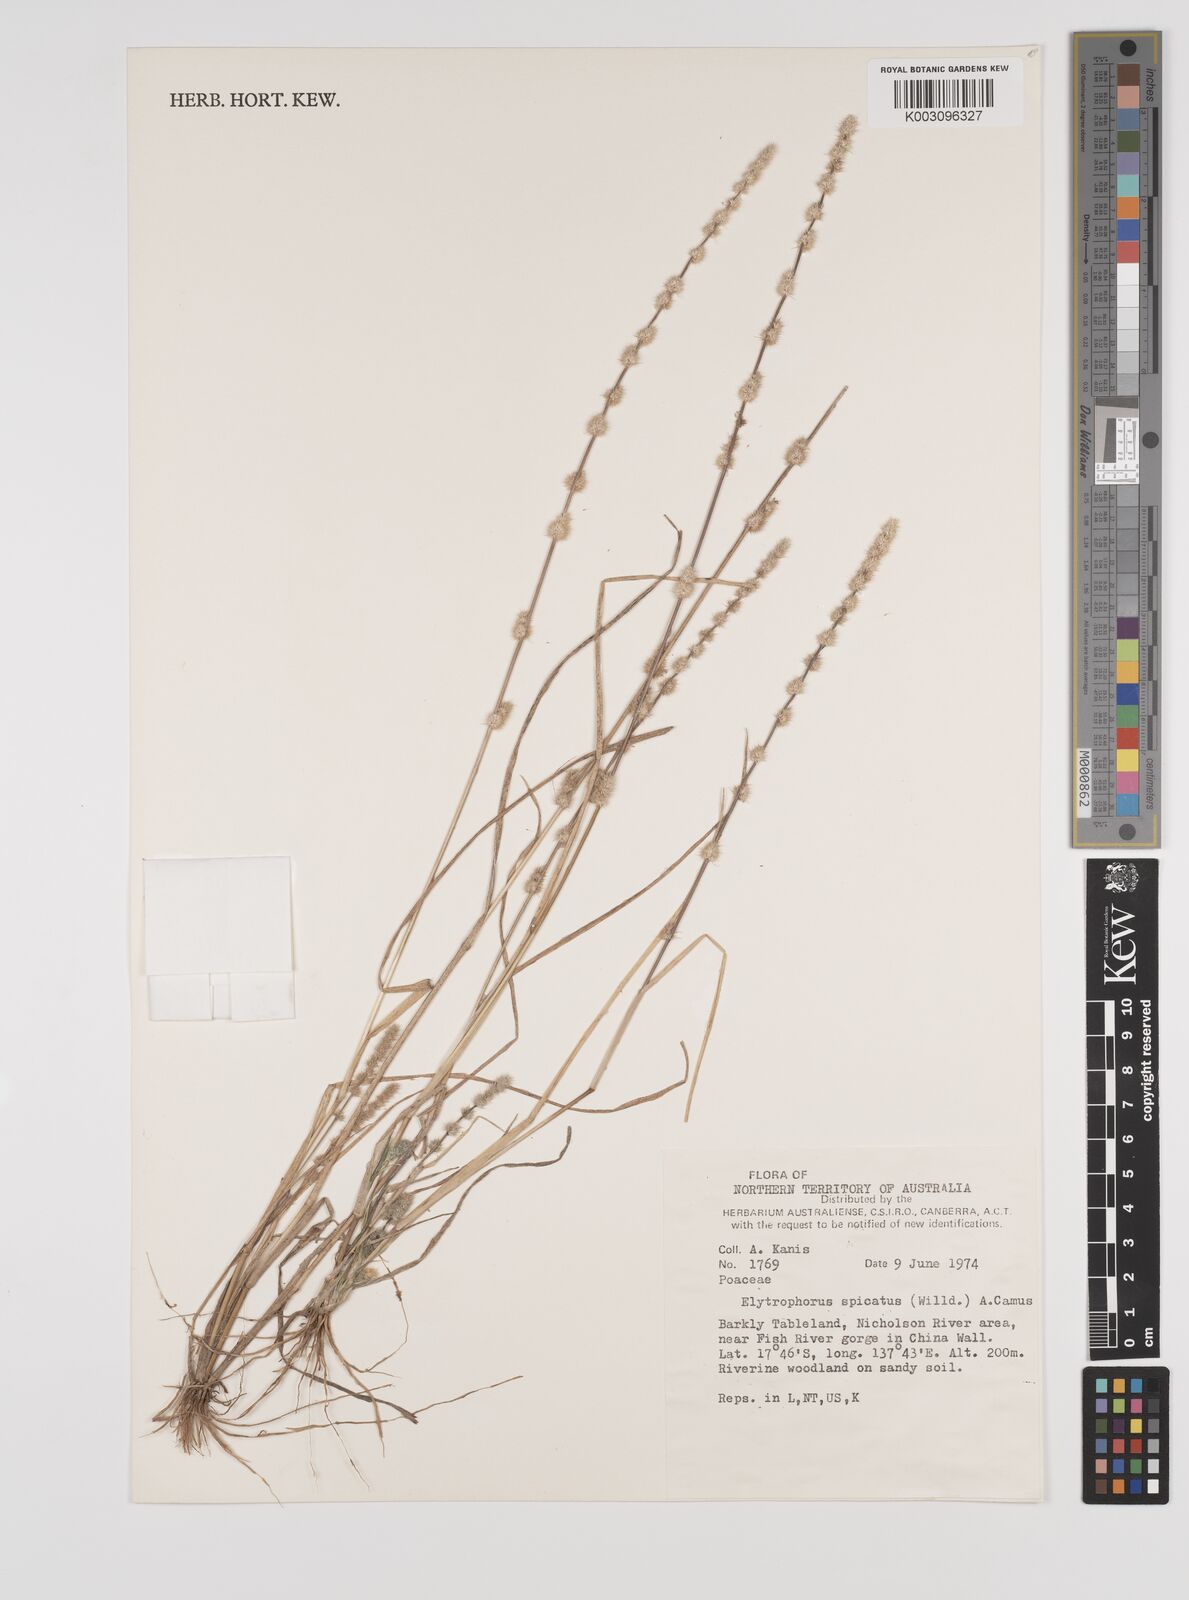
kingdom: Plantae
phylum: Tracheophyta
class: Liliopsida
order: Poales
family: Poaceae
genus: Elytrophorus
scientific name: Elytrophorus spicatus
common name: Spike grass
